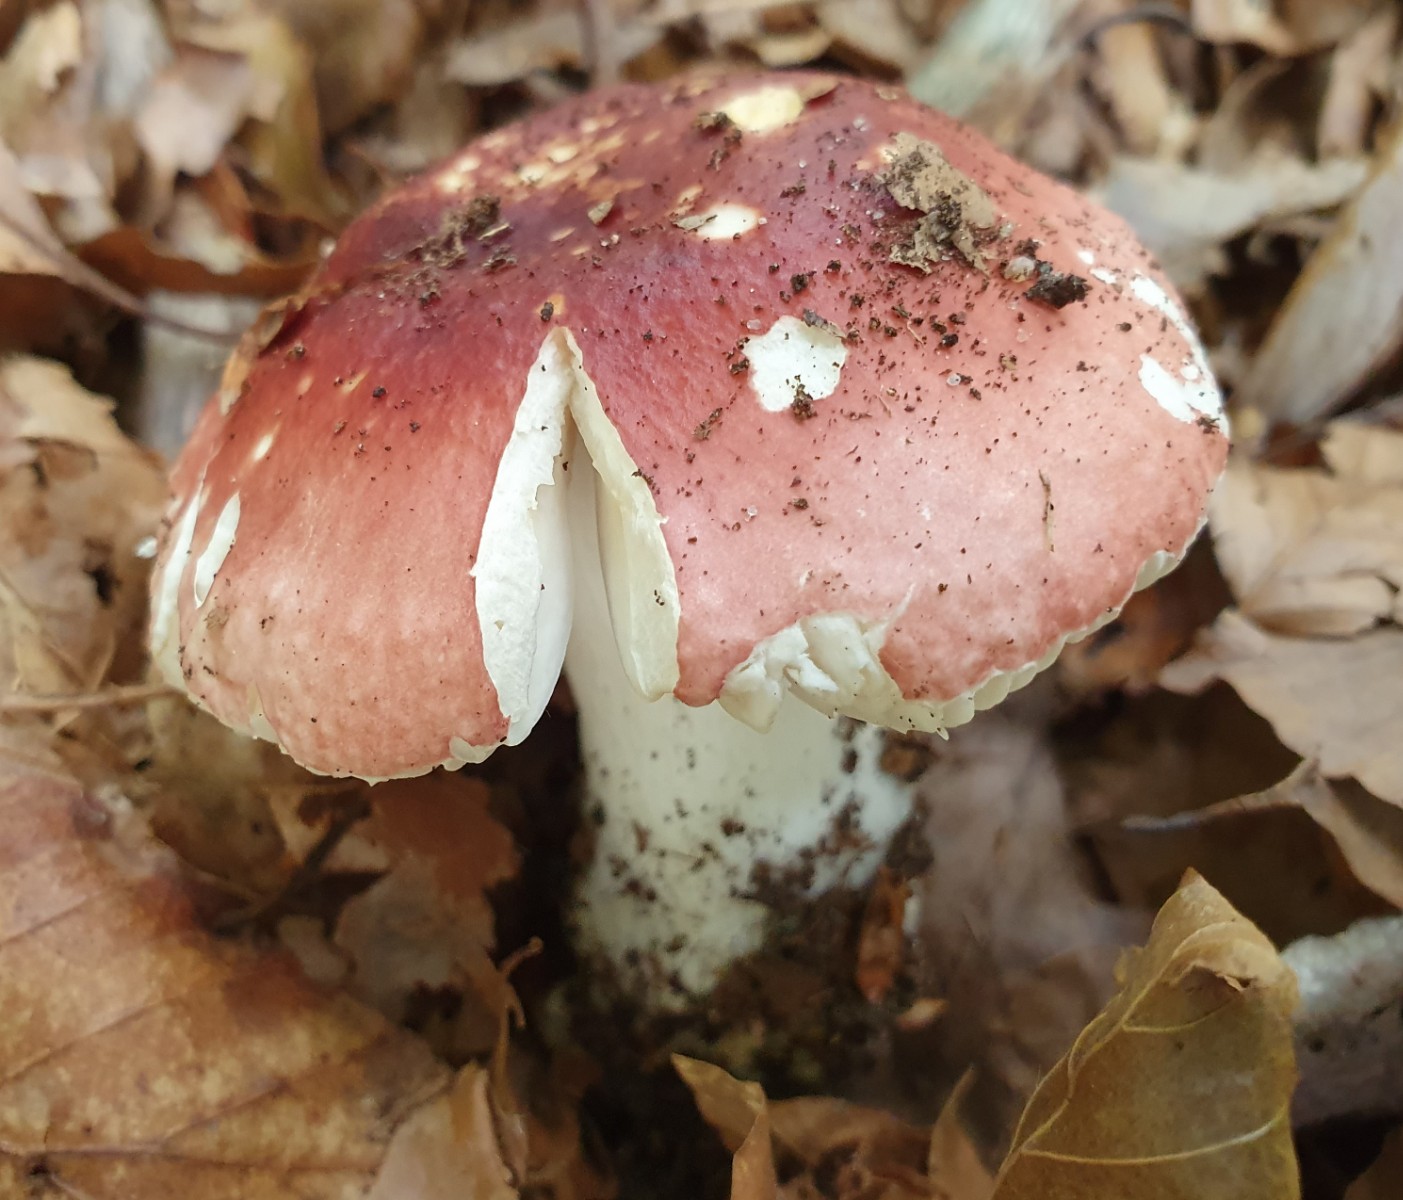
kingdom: Fungi
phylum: Basidiomycota
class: Agaricomycetes
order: Russulales
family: Russulaceae
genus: Russula
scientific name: Russula aurora
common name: rosa skørhat
